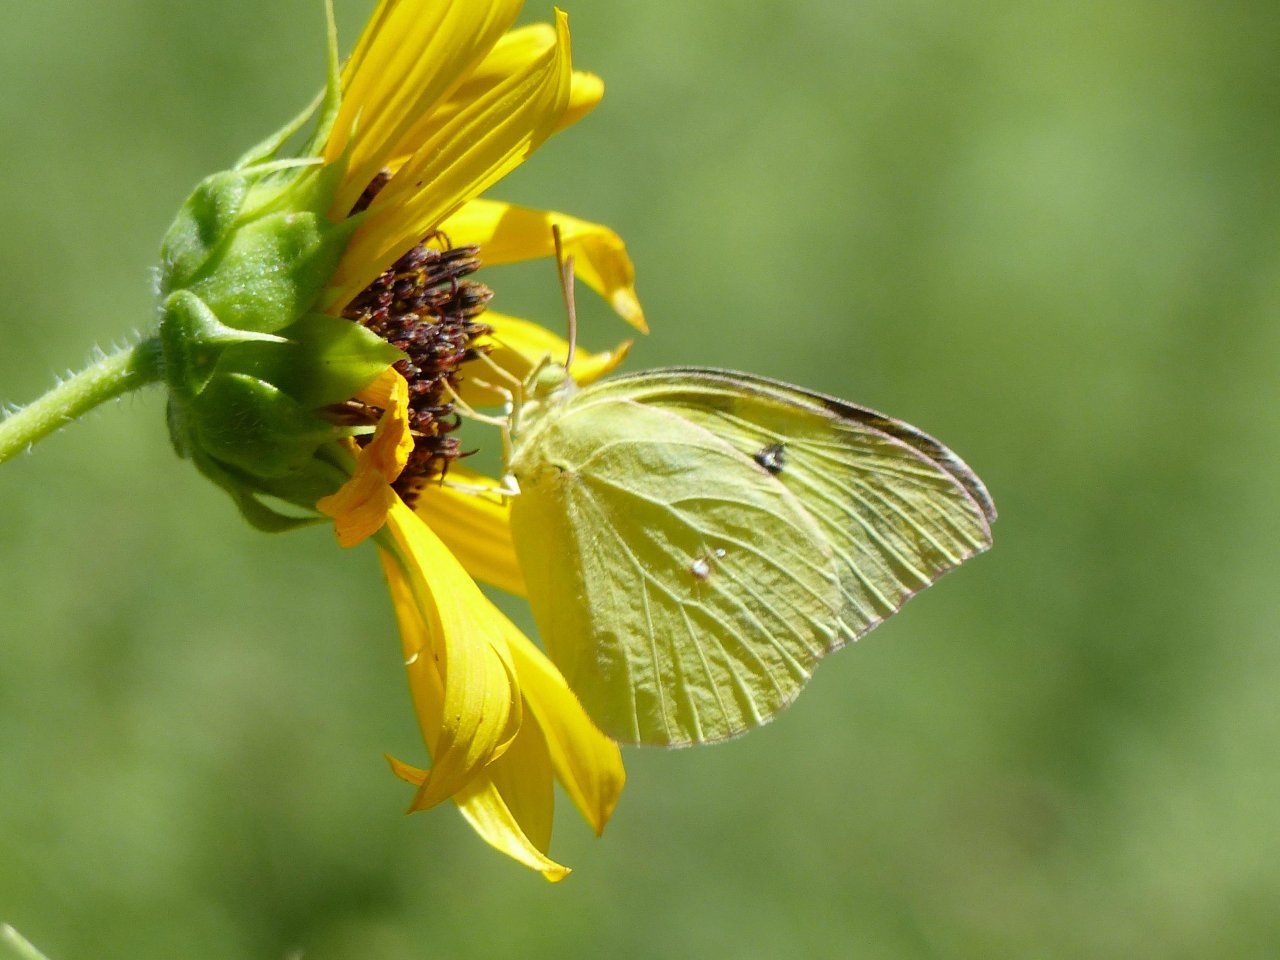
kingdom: Animalia
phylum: Arthropoda
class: Insecta
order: Lepidoptera
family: Pieridae
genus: Zerene
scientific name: Zerene cesonia
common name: Southern Dogface
